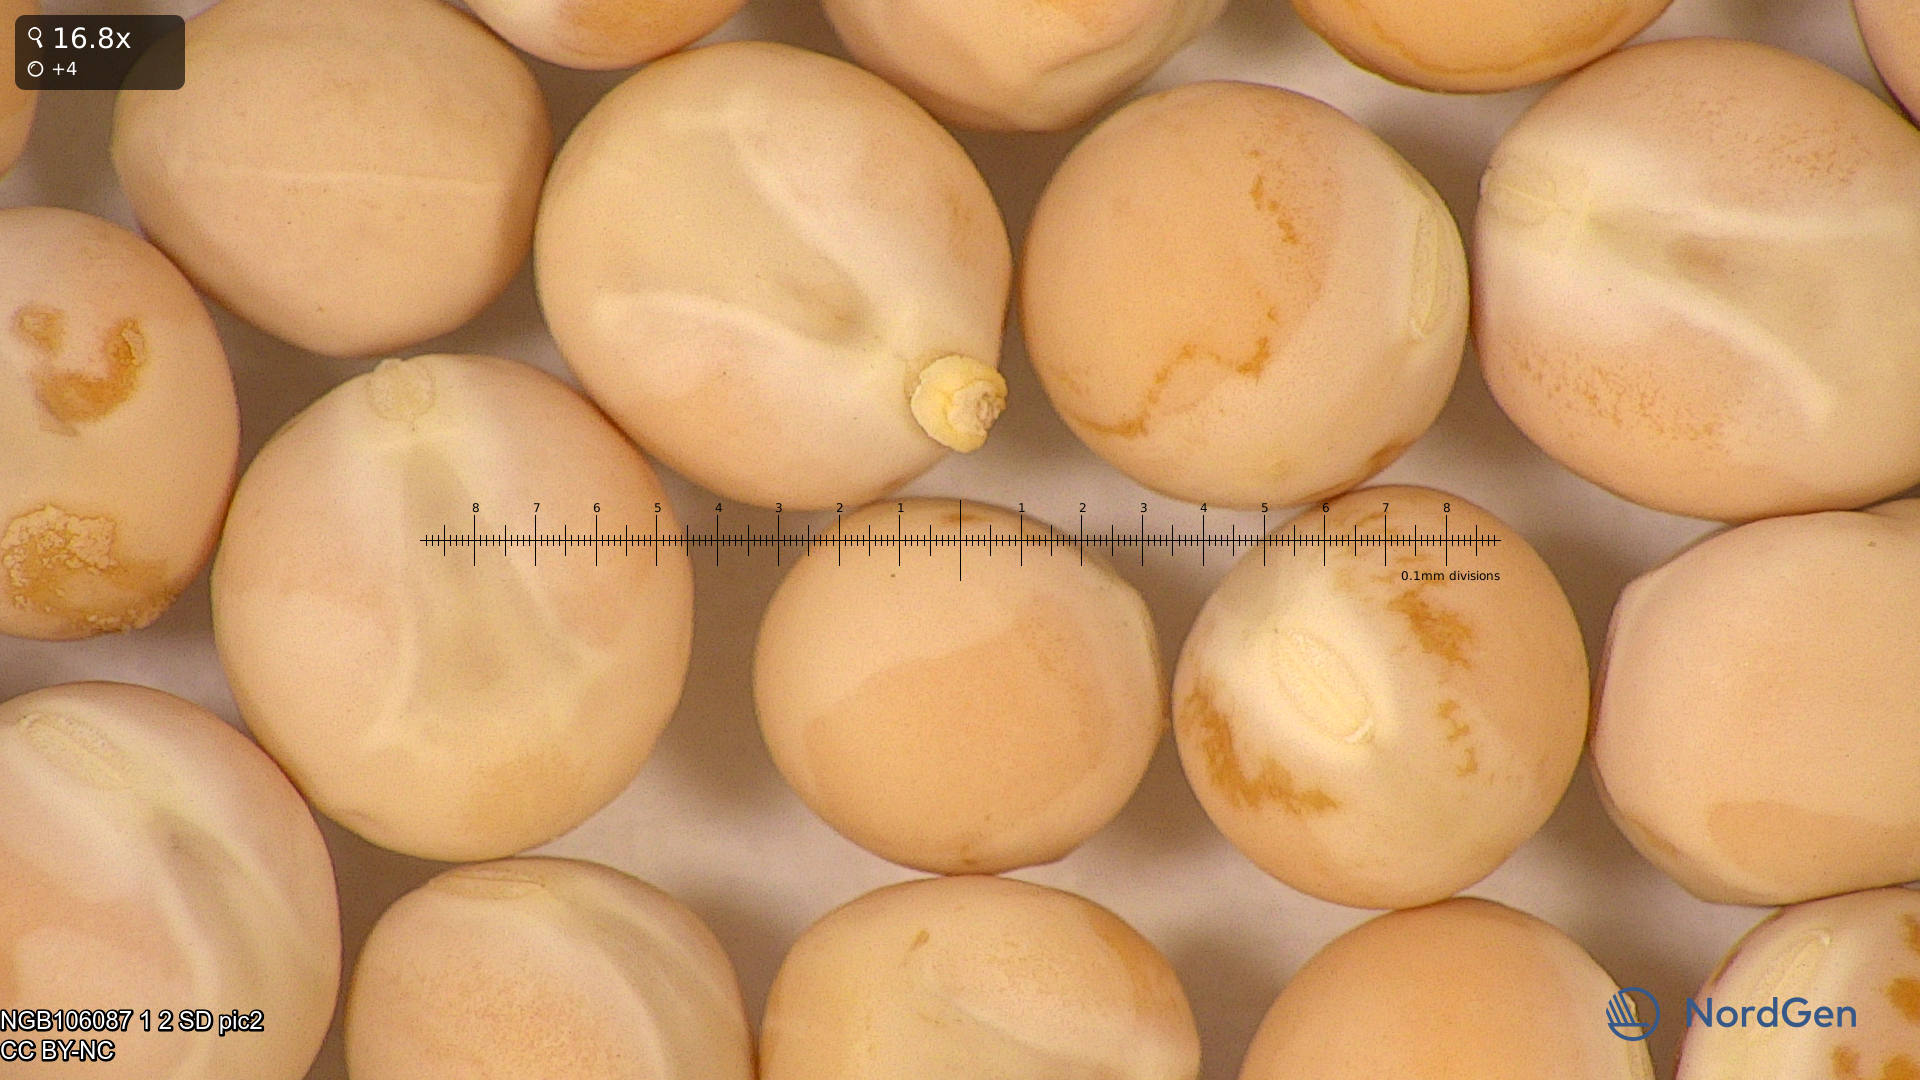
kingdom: Plantae
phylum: Tracheophyta
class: Magnoliopsida
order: Fabales
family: Fabaceae
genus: Lathyrus
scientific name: Lathyrus oleraceus
